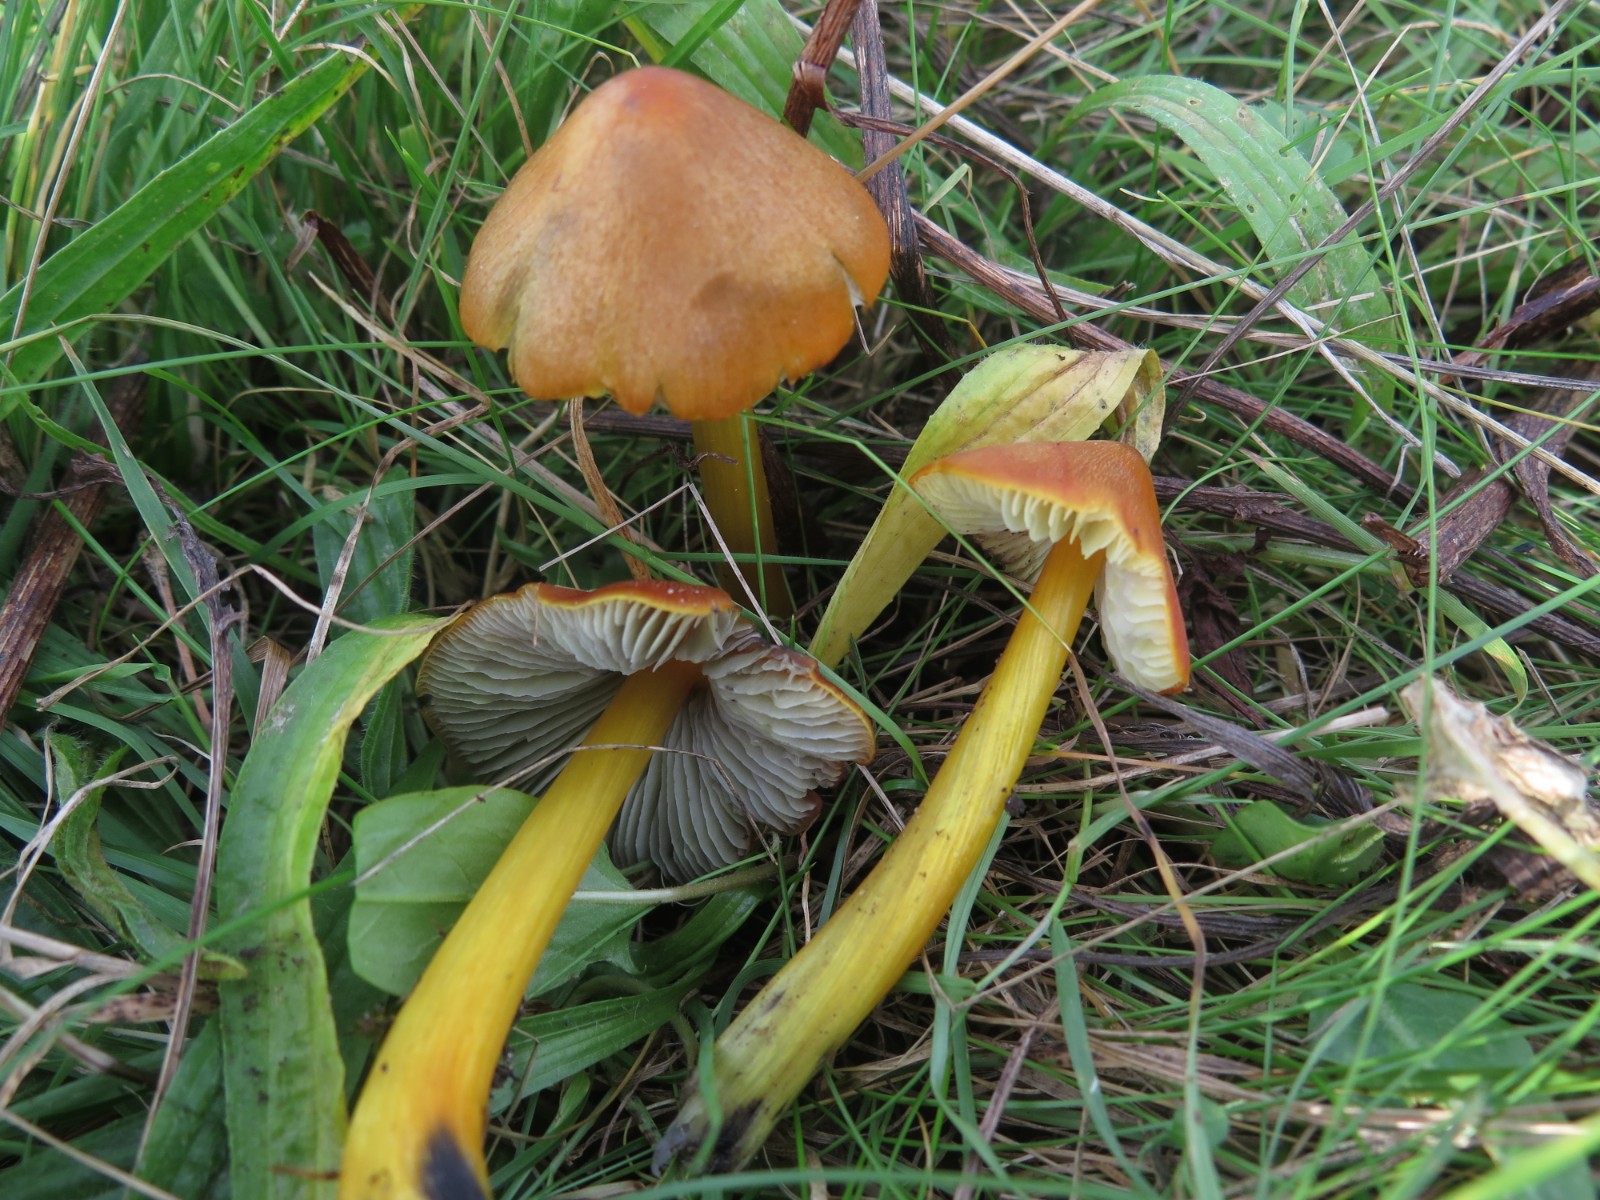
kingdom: Fungi
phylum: Basidiomycota
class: Agaricomycetes
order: Agaricales
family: Hygrophoraceae
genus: Hygrocybe
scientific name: Hygrocybe conica
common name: kegle-vokshat
